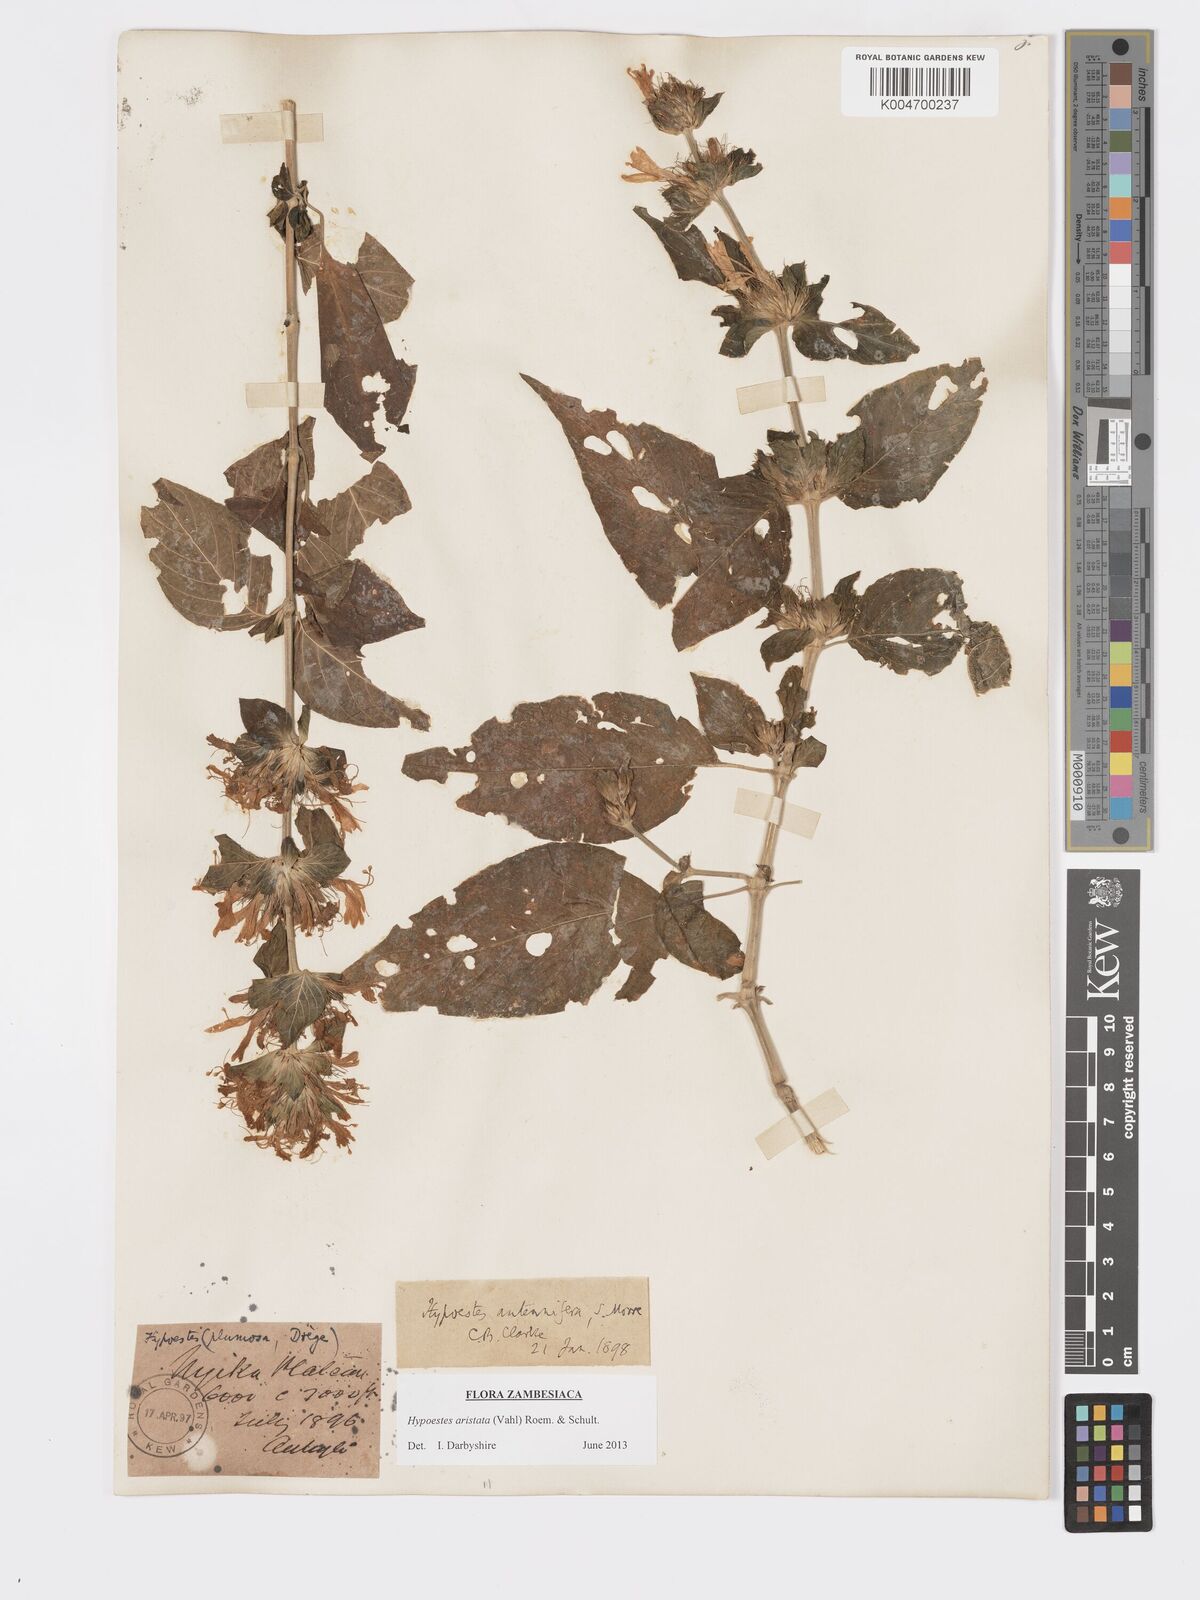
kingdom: Plantae
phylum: Tracheophyta
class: Magnoliopsida
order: Lamiales
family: Acanthaceae
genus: Hypoestes
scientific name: Hypoestes aristata
